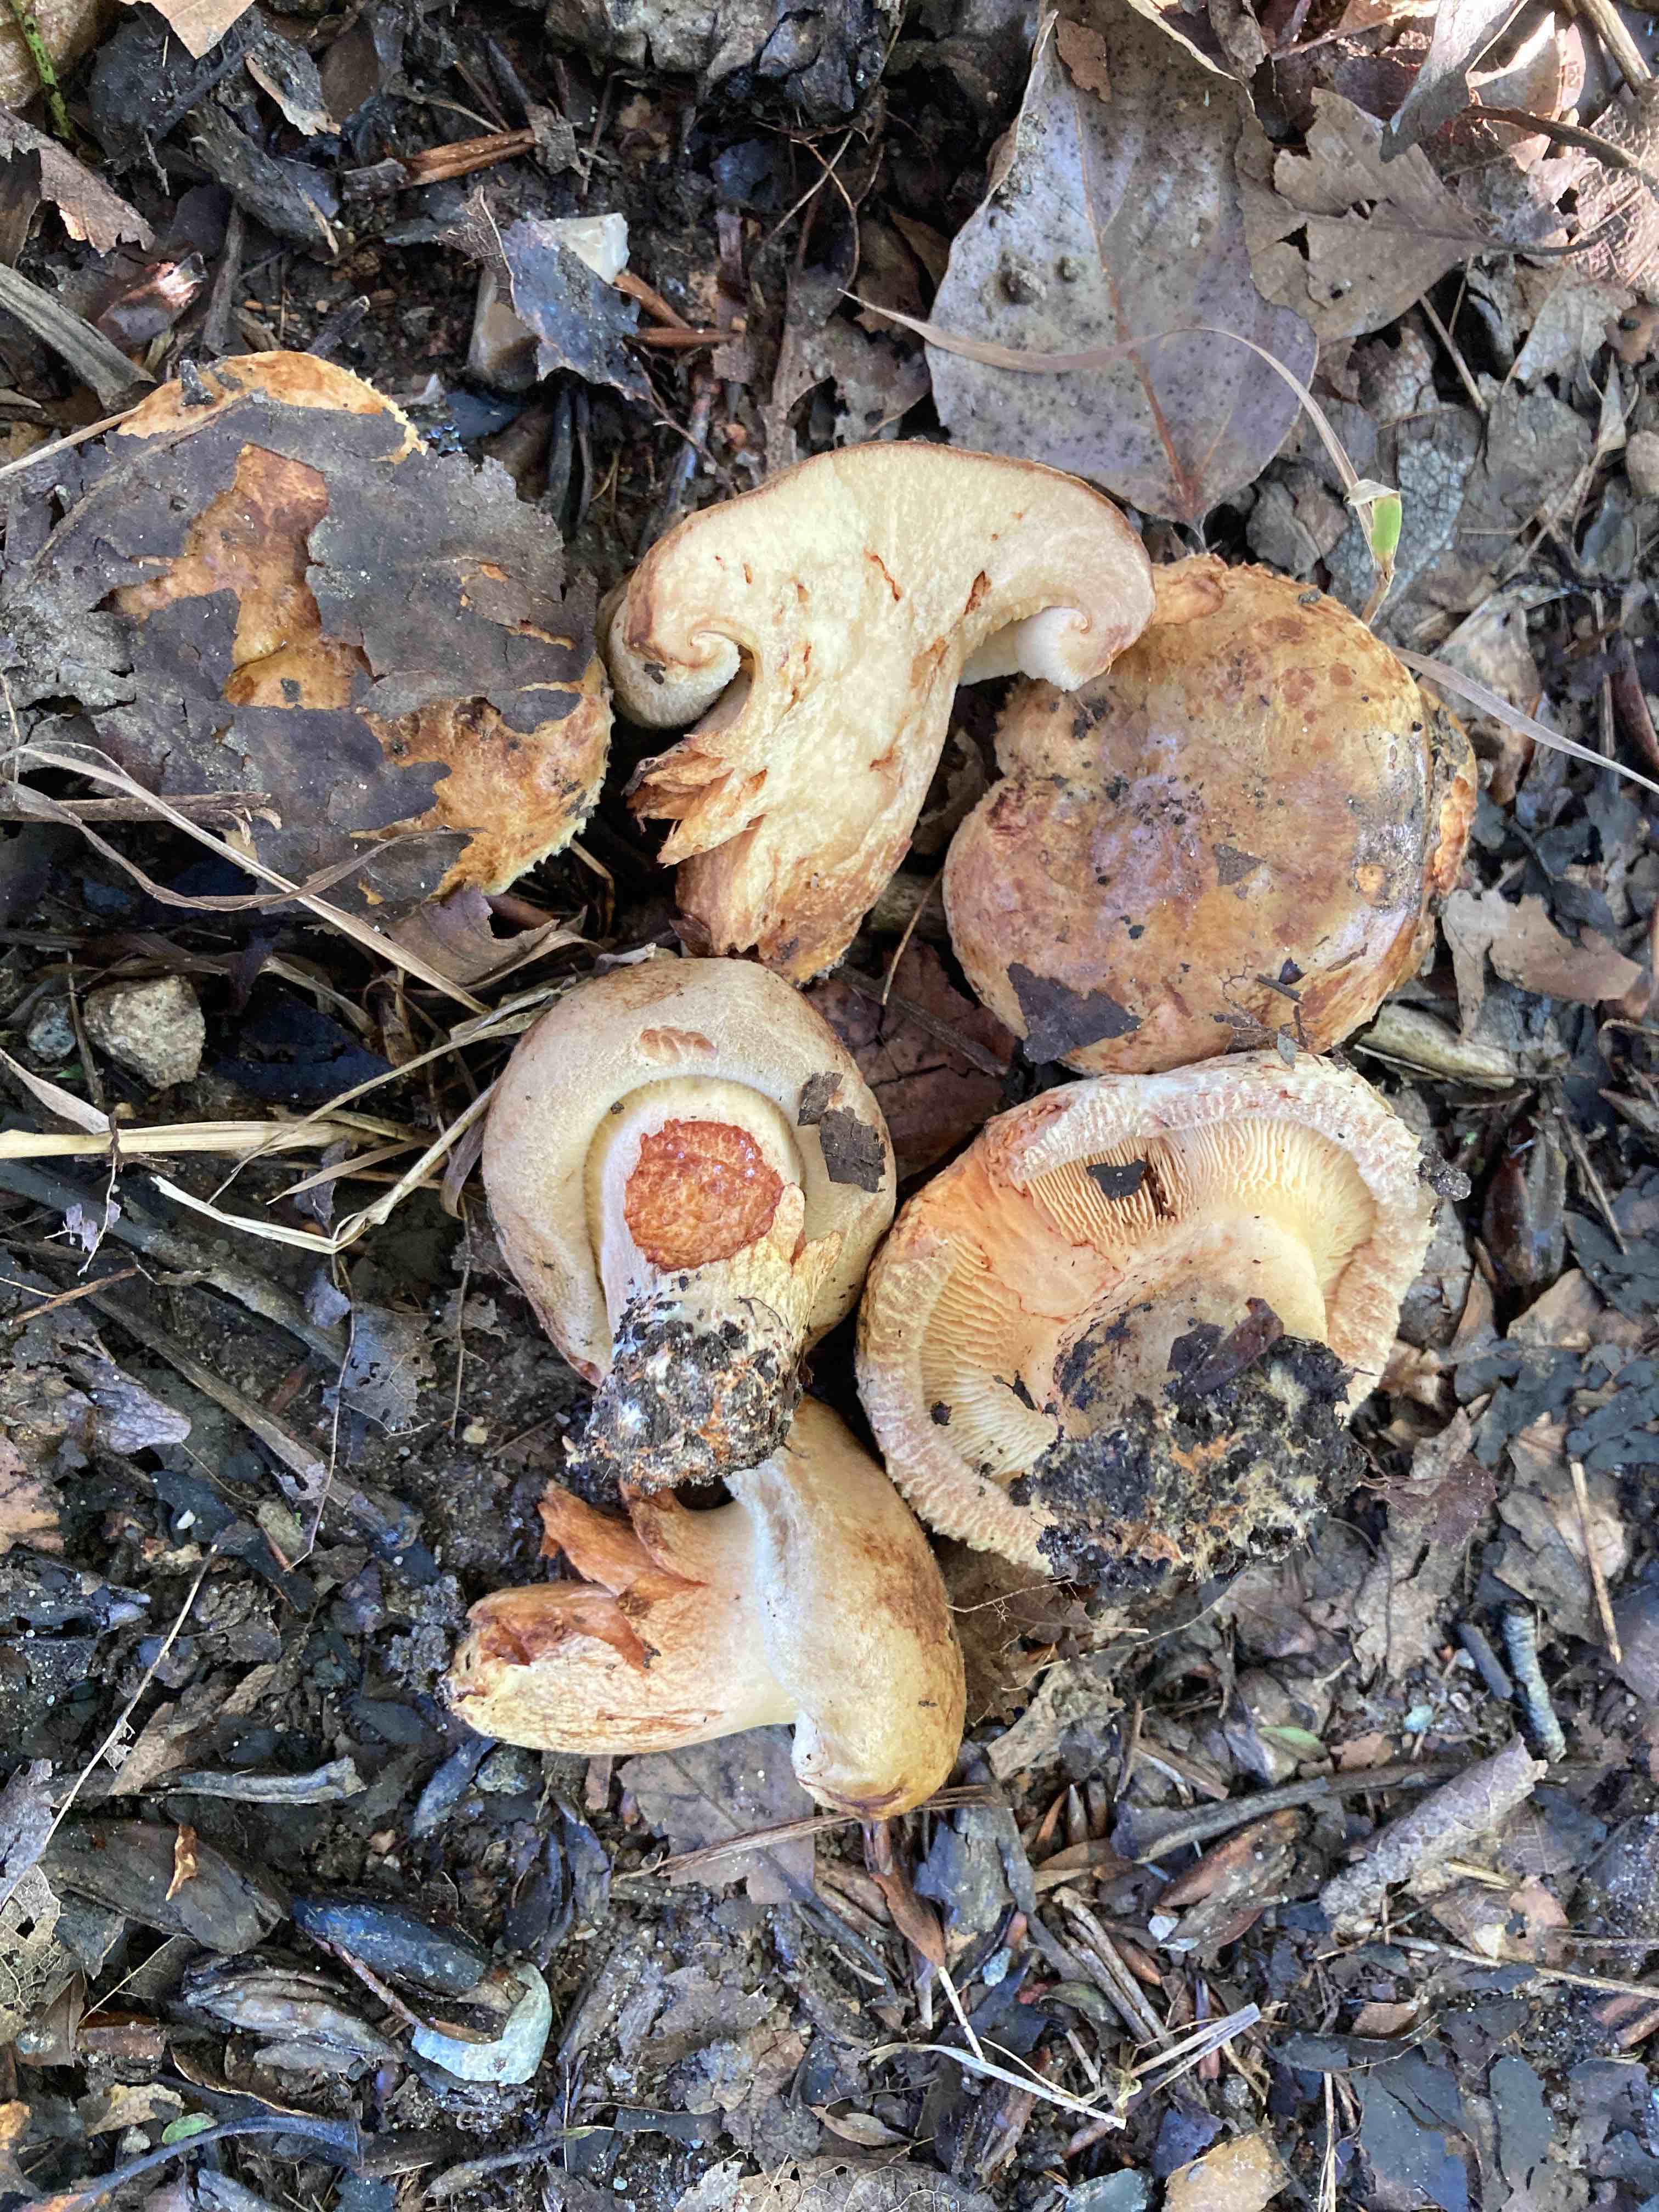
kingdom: Fungi
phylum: Basidiomycota
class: Agaricomycetes
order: Boletales
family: Paxillaceae
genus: Paxillus
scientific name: Paxillus obscurisporus
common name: mahognisporet netbladhat
